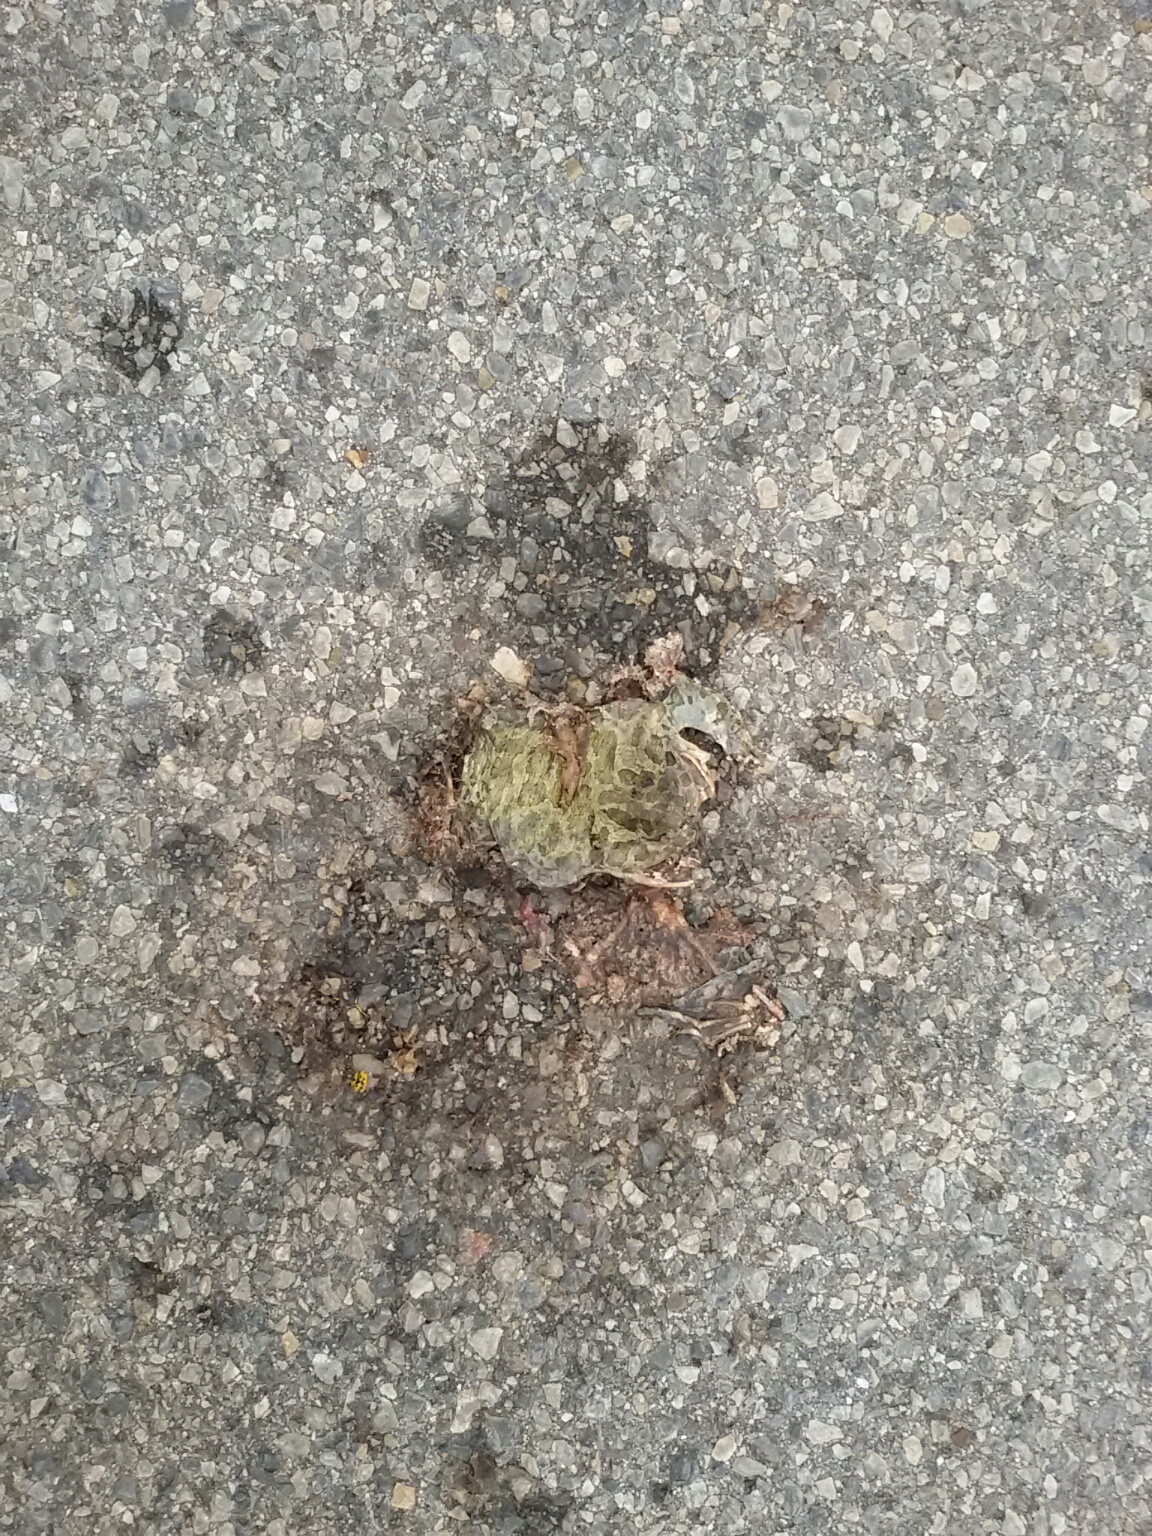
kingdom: Animalia
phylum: Chordata
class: Amphibia
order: Anura
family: Bufonidae
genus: Bufotes
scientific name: Bufotes viridis
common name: European green toad
